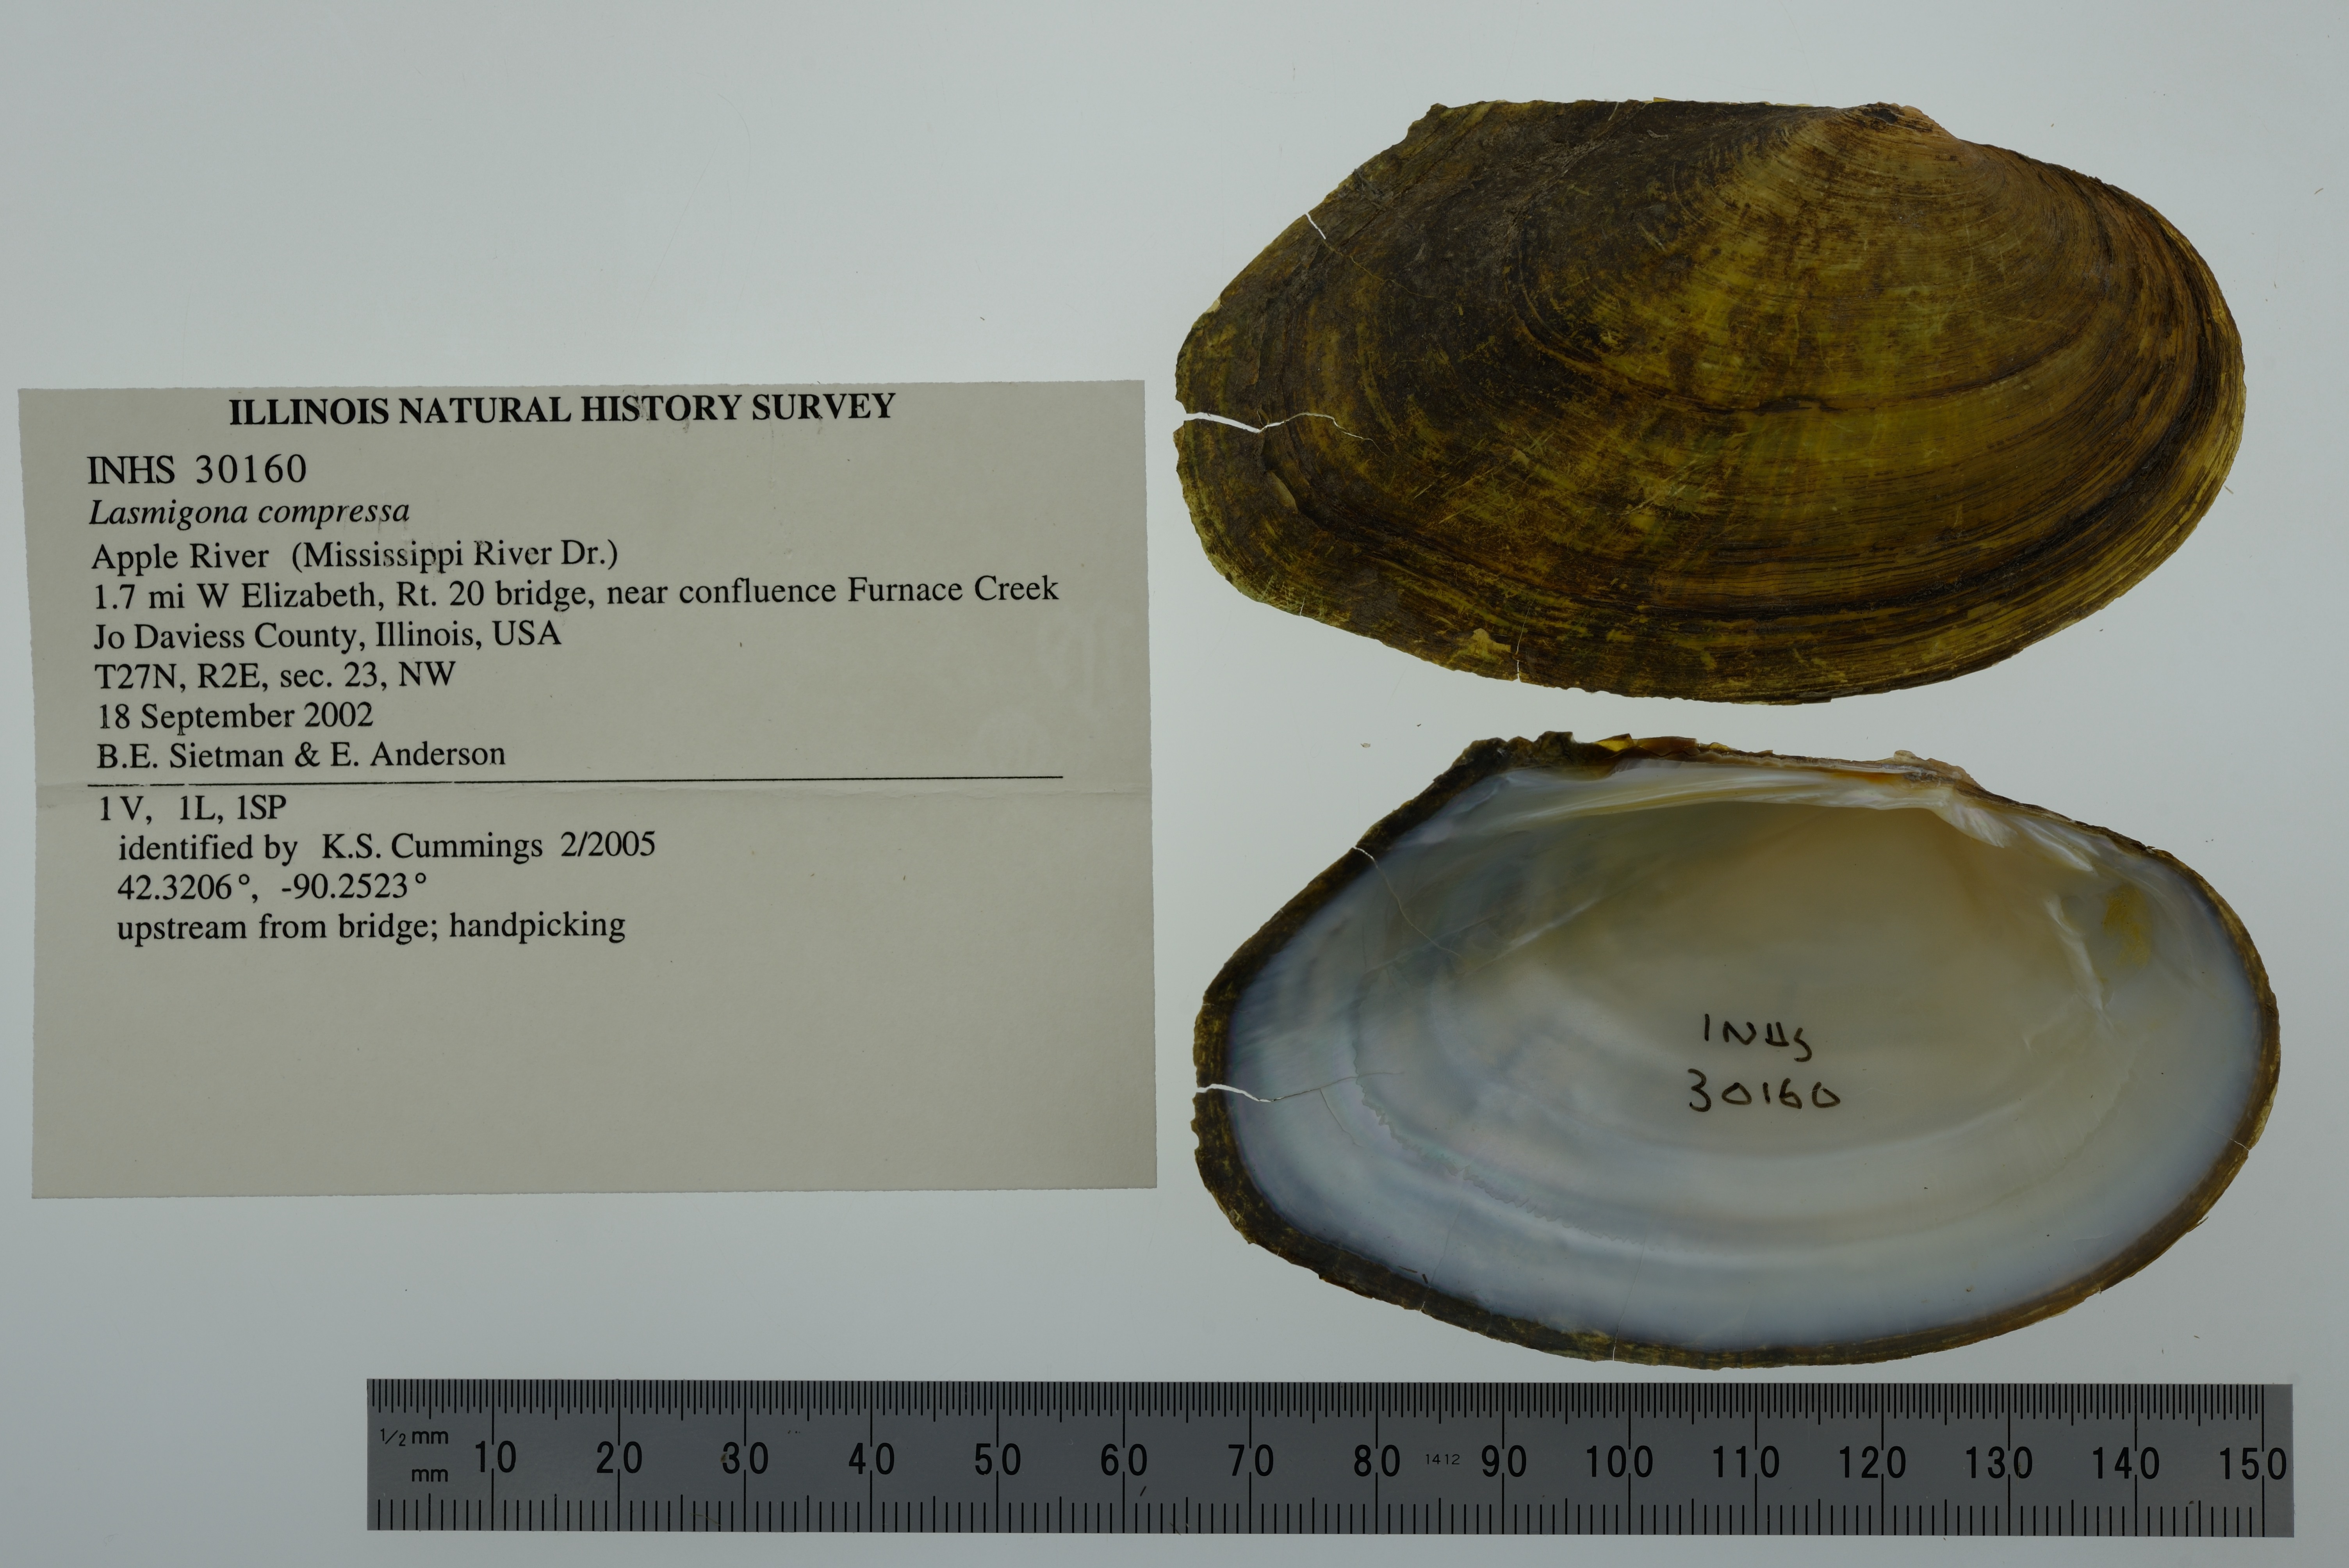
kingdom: Animalia
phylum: Mollusca
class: Bivalvia
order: Unionida
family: Unionidae
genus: Lasmigona
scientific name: Lasmigona compressa
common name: Creek heelsplitter
